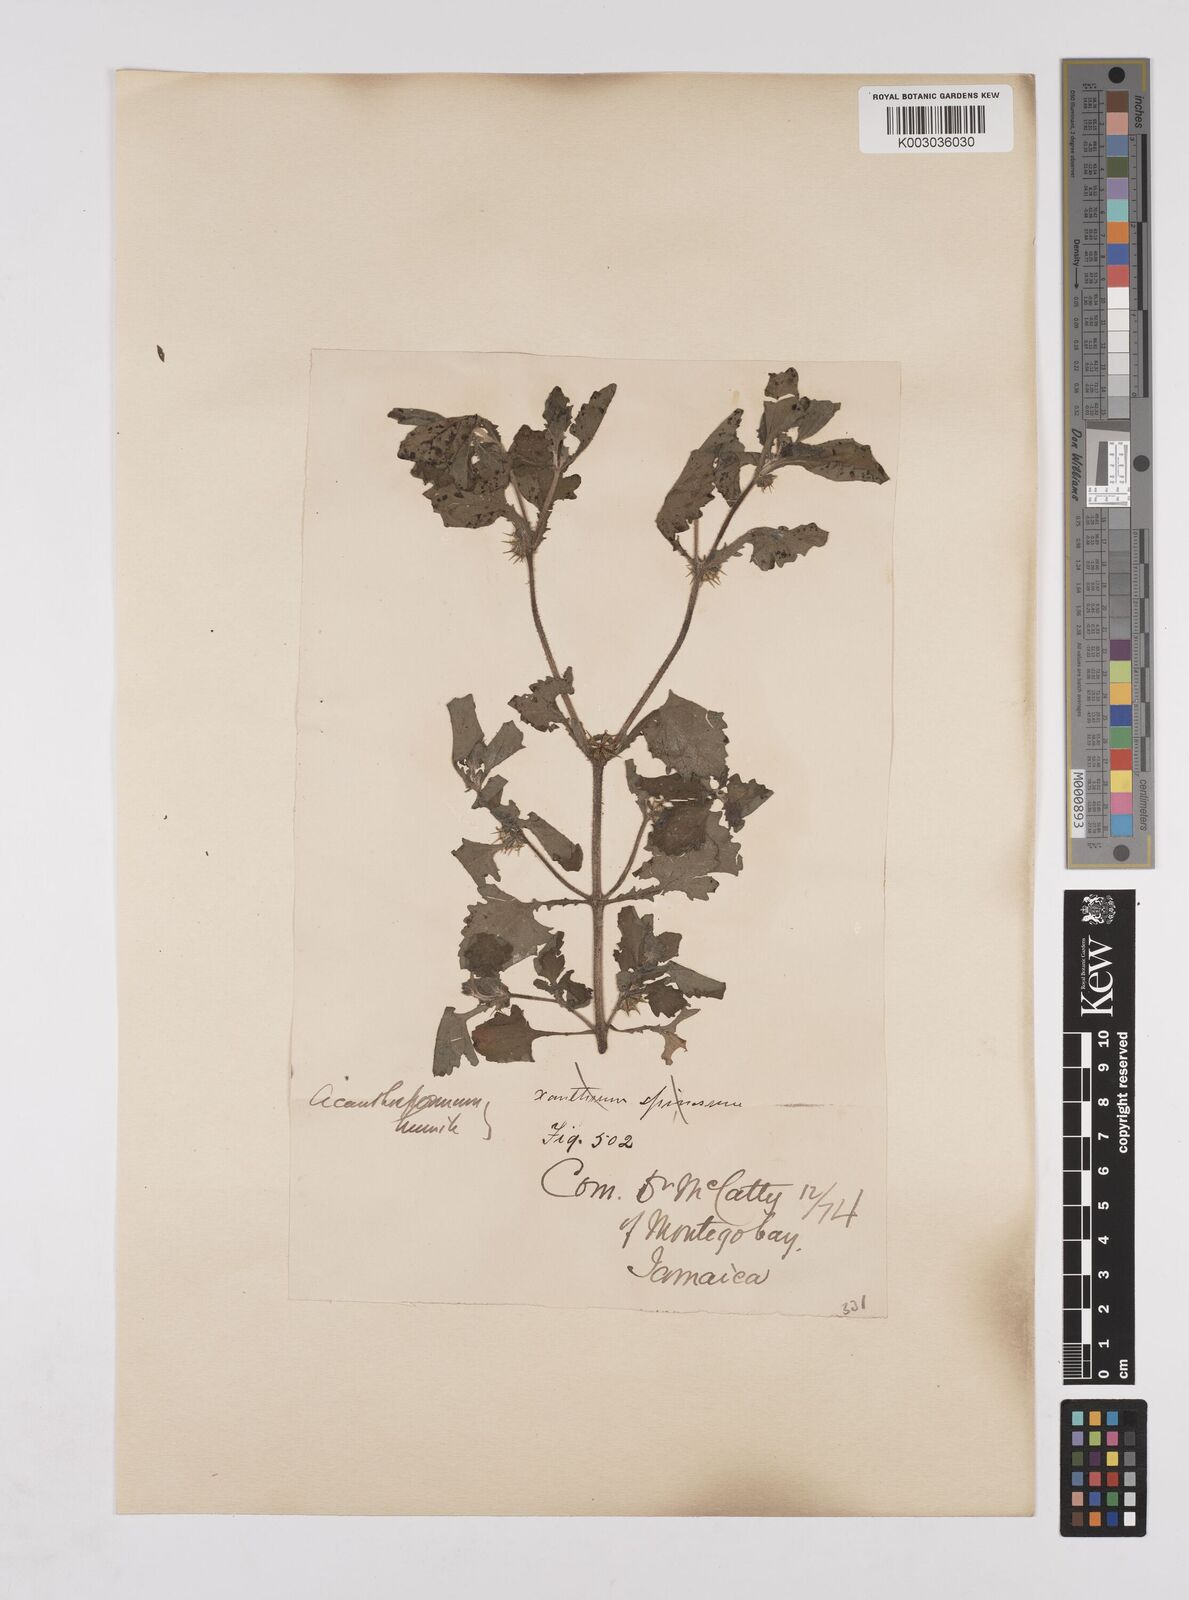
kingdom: Plantae
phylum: Tracheophyta
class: Magnoliopsida
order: Asterales
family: Asteraceae
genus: Acanthospermum
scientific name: Acanthospermum humile
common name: Low starbur
